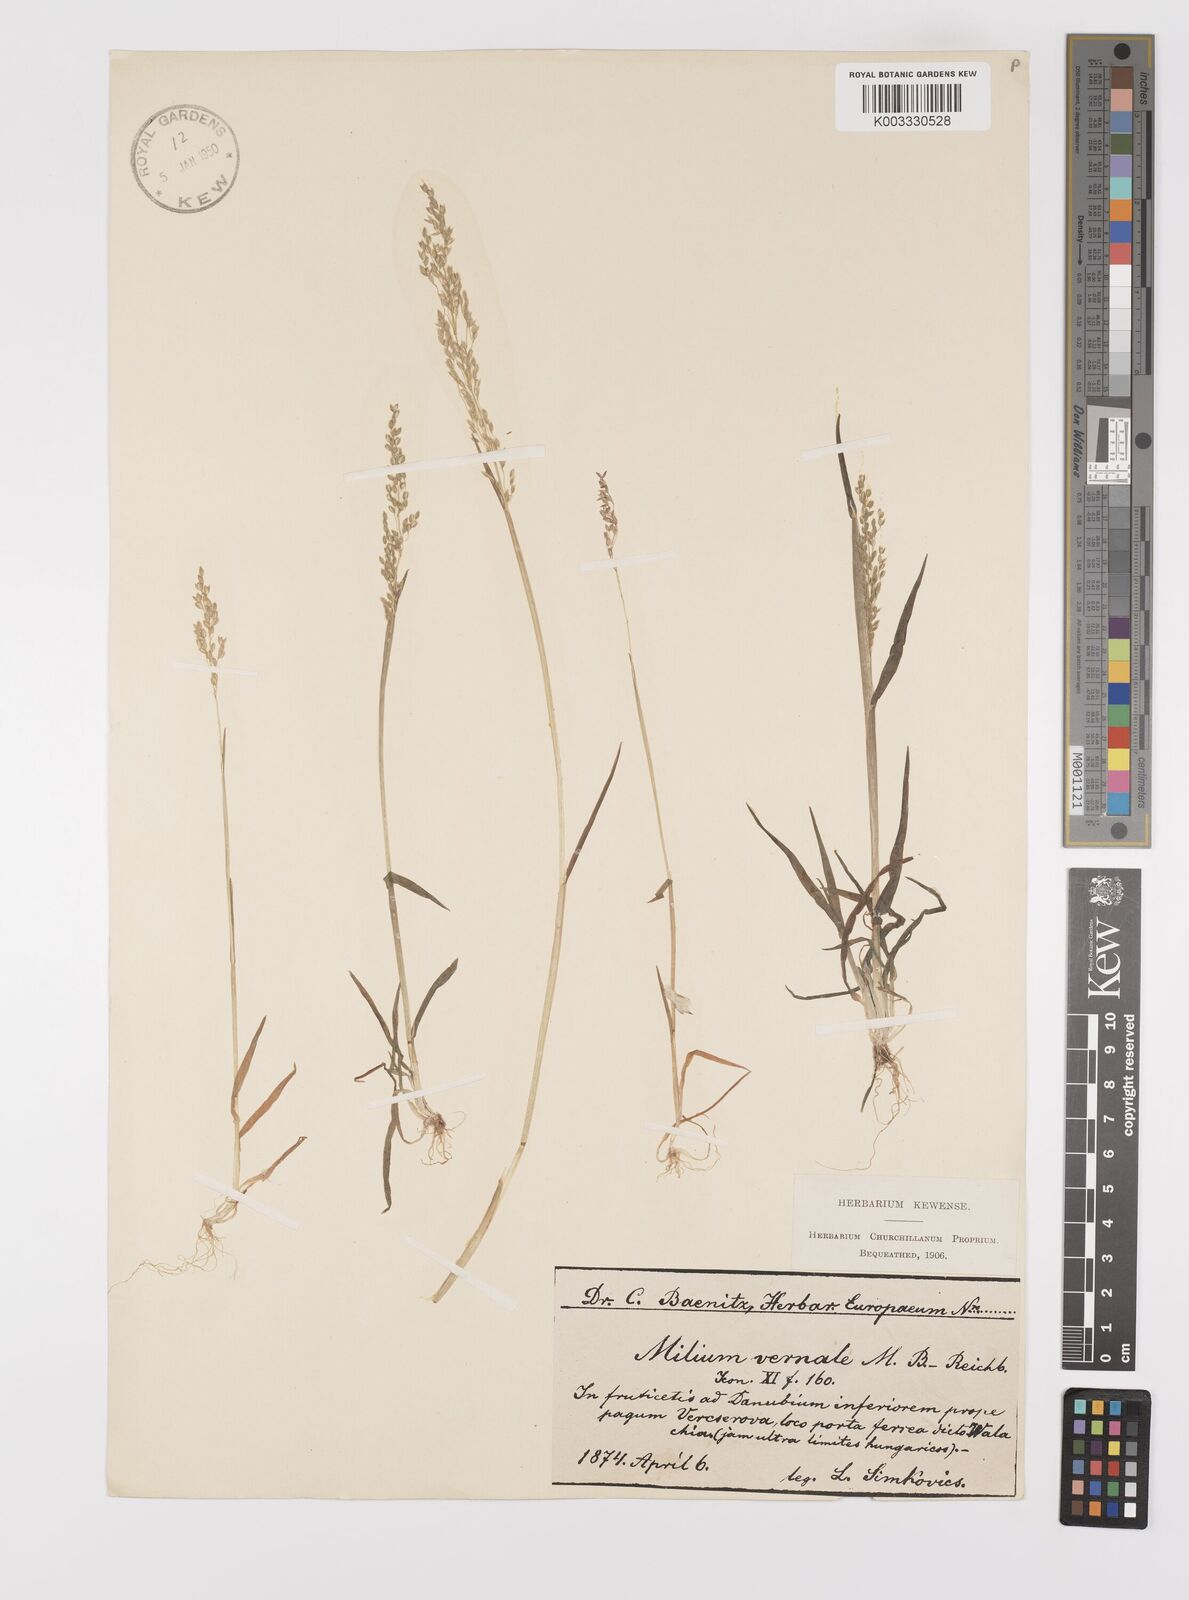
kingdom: Plantae
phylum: Tracheophyta
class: Liliopsida
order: Poales
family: Poaceae
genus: Milium
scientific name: Milium vernale
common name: Early millet
